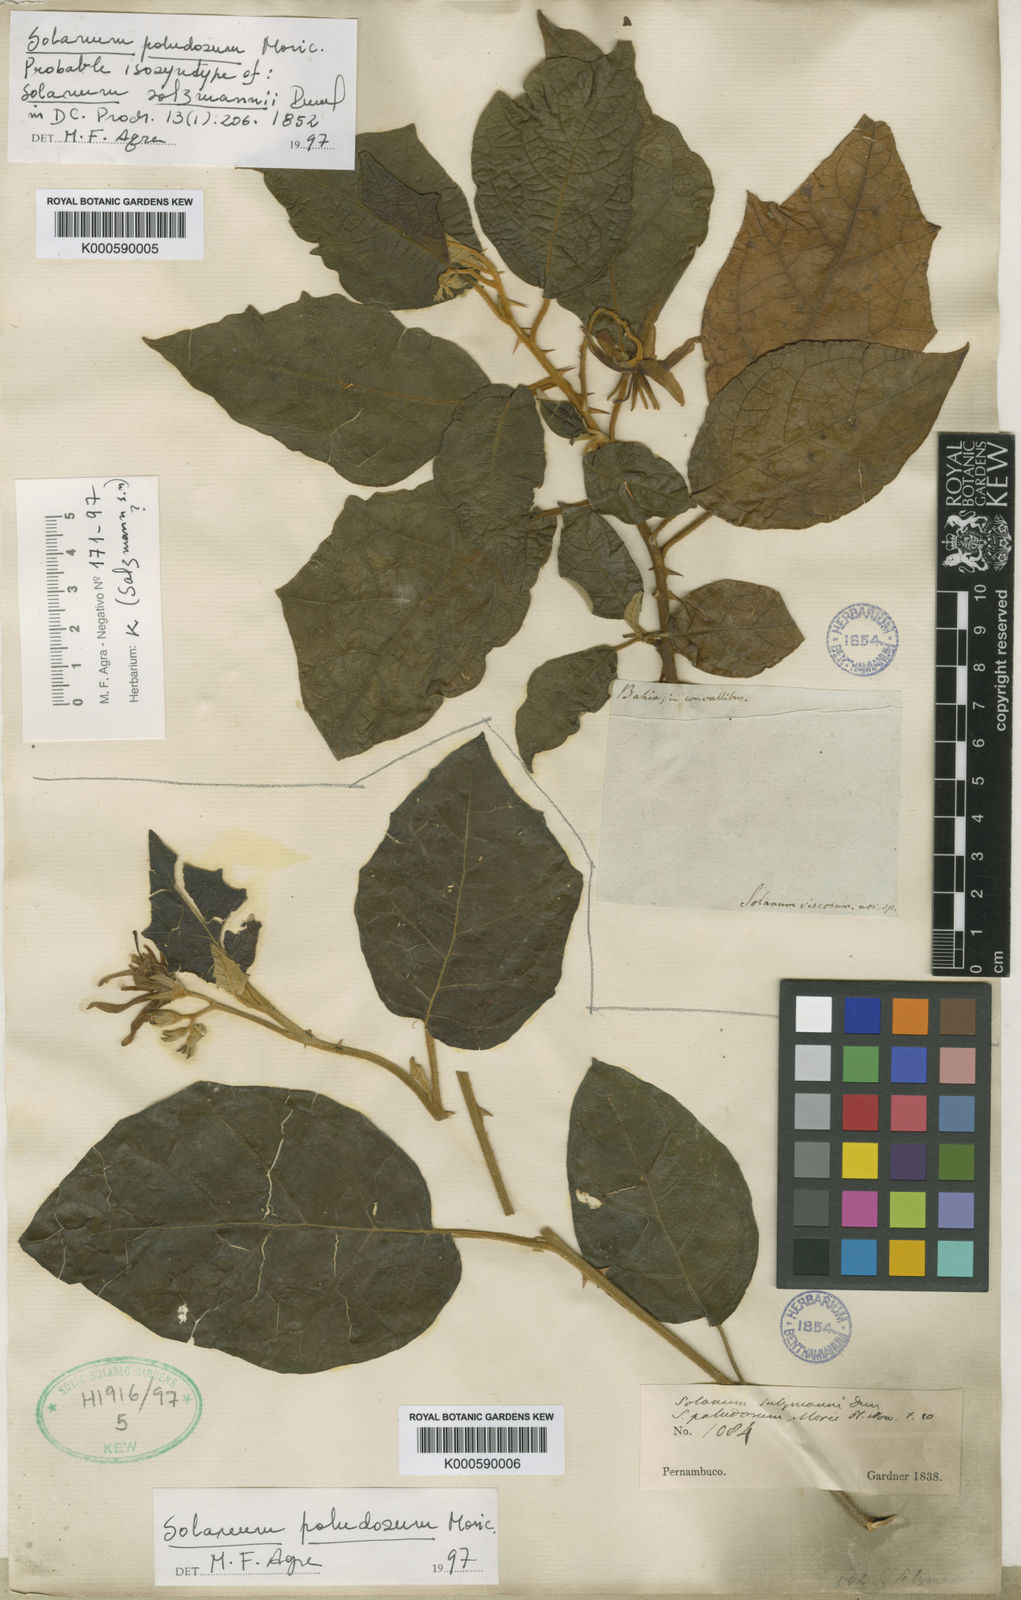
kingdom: Plantae
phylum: Tracheophyta
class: Magnoliopsida
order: Solanales
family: Solanaceae
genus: Solanum
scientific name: Solanum paludosum
